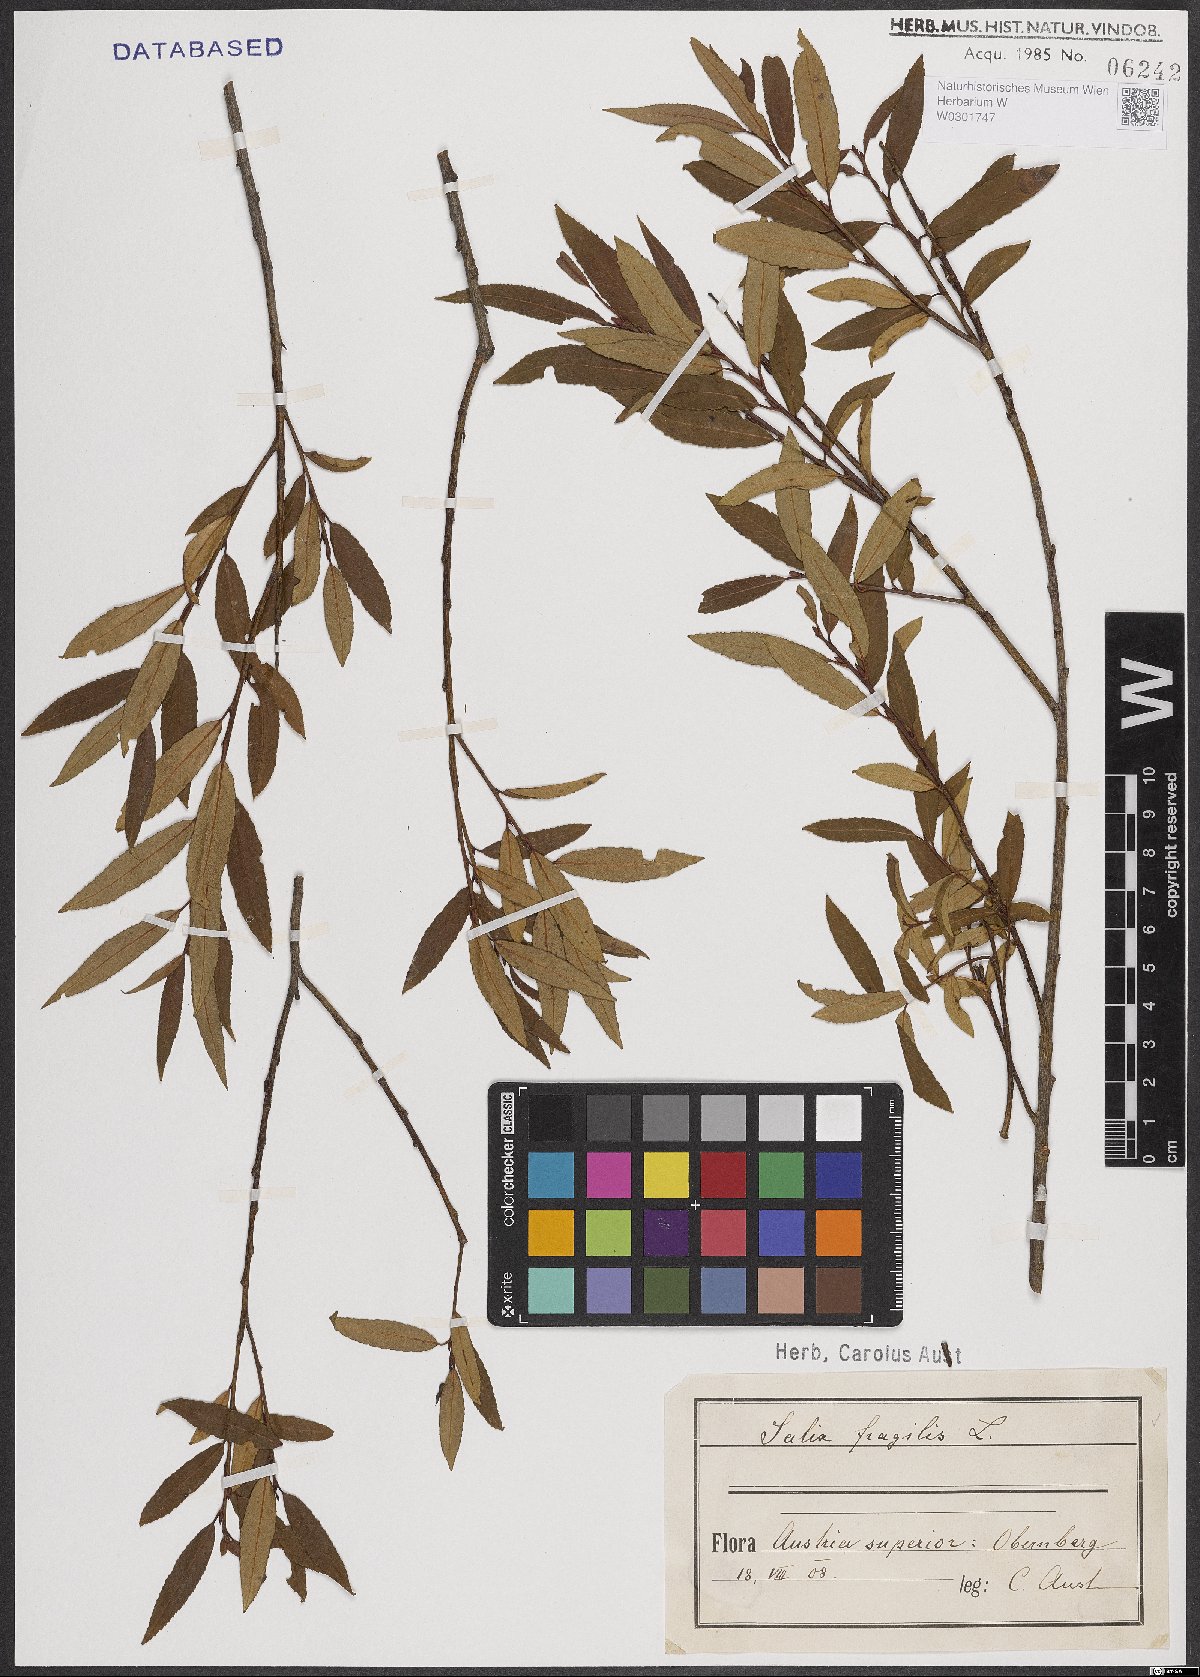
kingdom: Plantae
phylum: Tracheophyta
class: Magnoliopsida
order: Malpighiales
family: Salicaceae
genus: Salix
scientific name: Salix fragilis
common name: Crack willow
